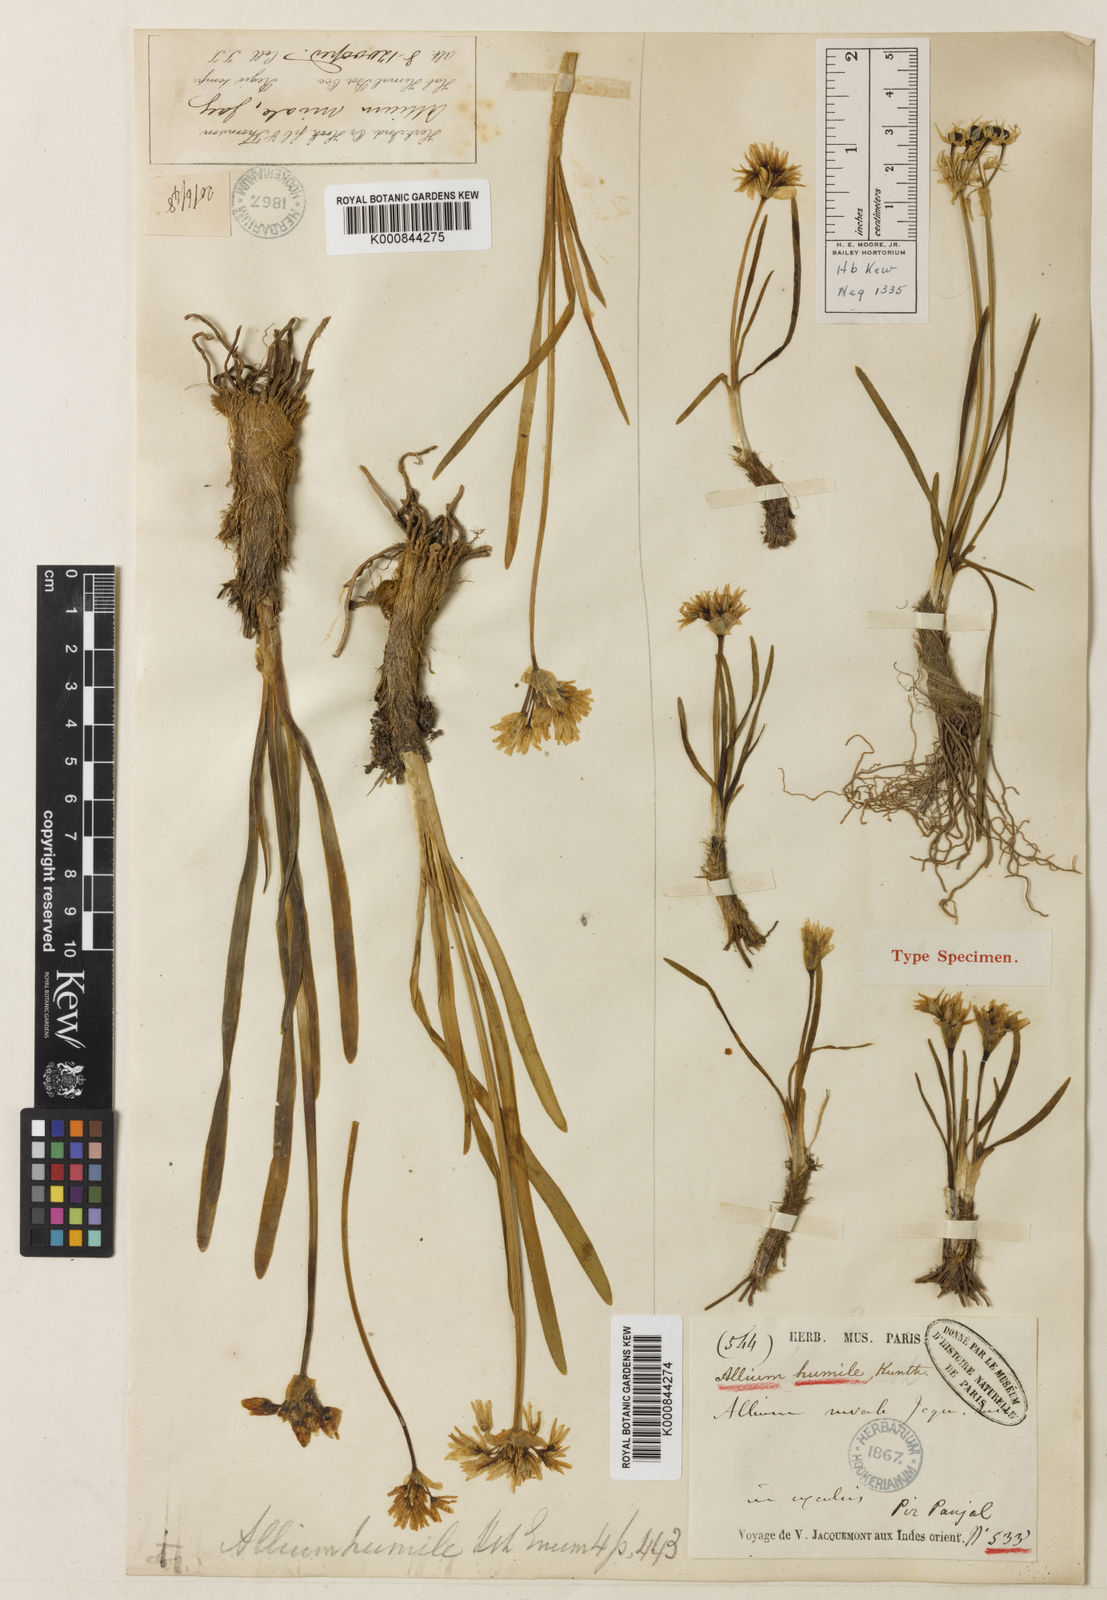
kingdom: Plantae
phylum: Tracheophyta
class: Liliopsida
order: Asparagales
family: Amaryllidaceae
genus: Allium
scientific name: Allium
